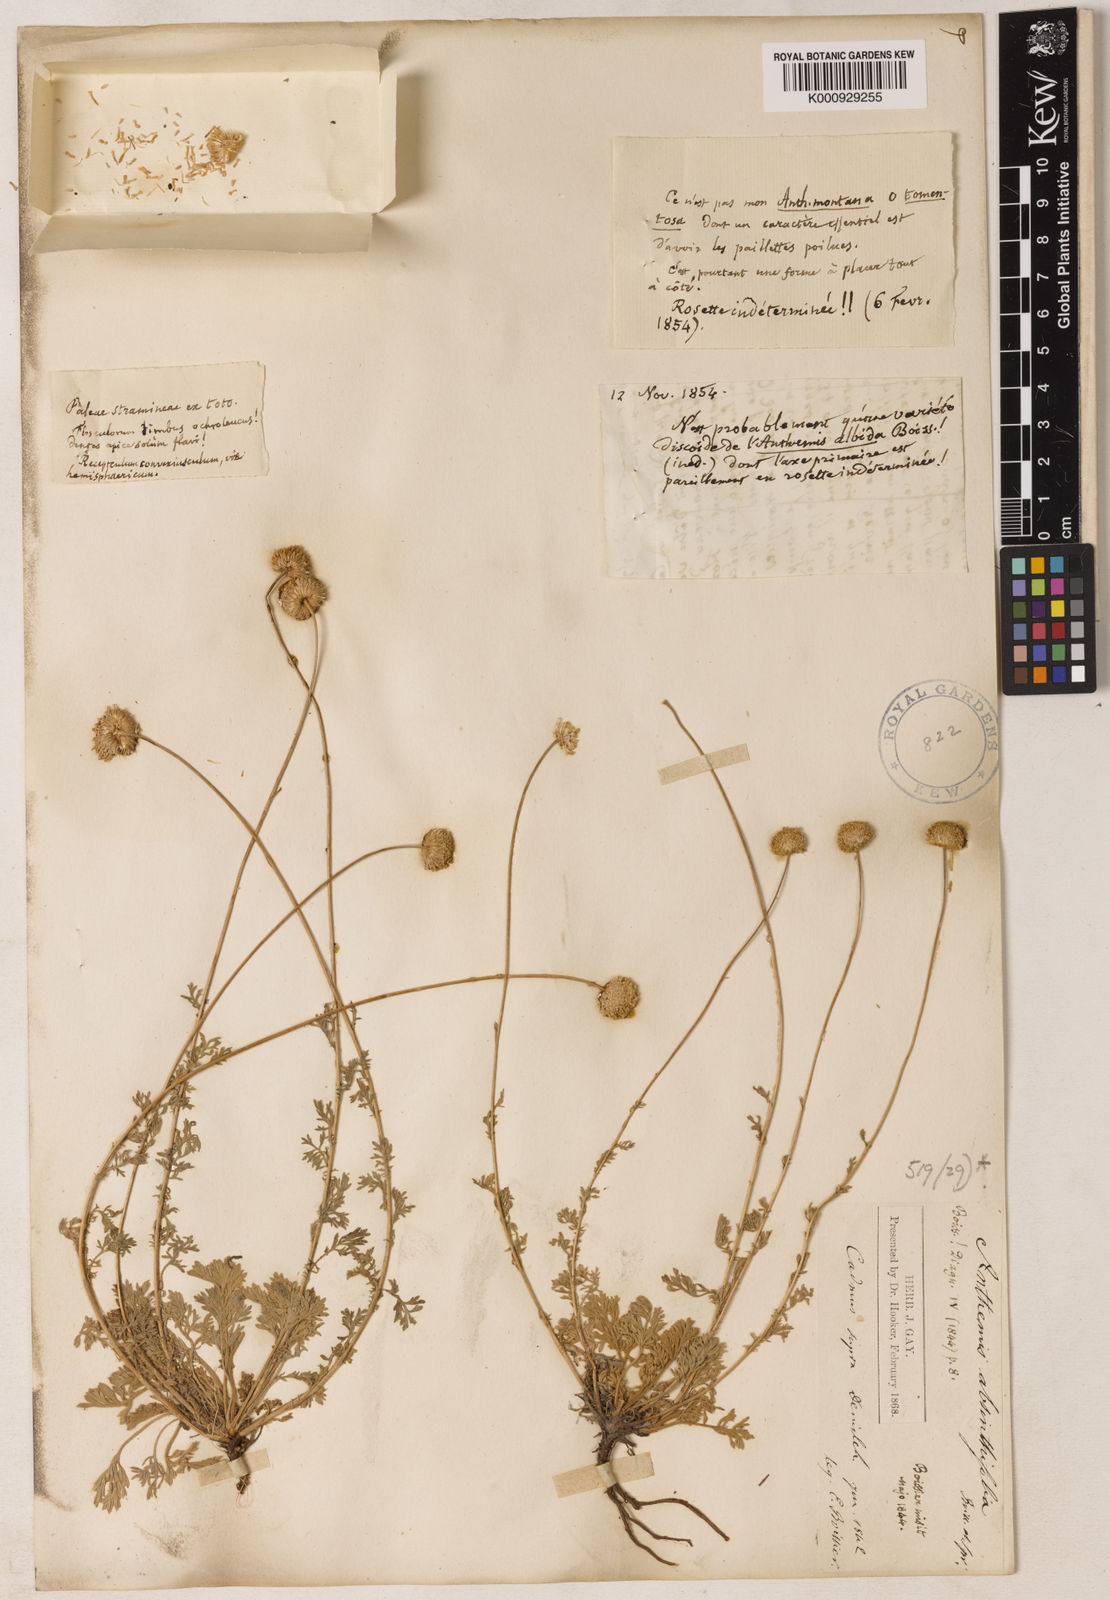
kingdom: Plantae
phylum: Tracheophyta
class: Magnoliopsida
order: Asterales
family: Asteraceae
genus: Anthemis
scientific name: Anthemis cretica
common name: Mountain dog-daisy
